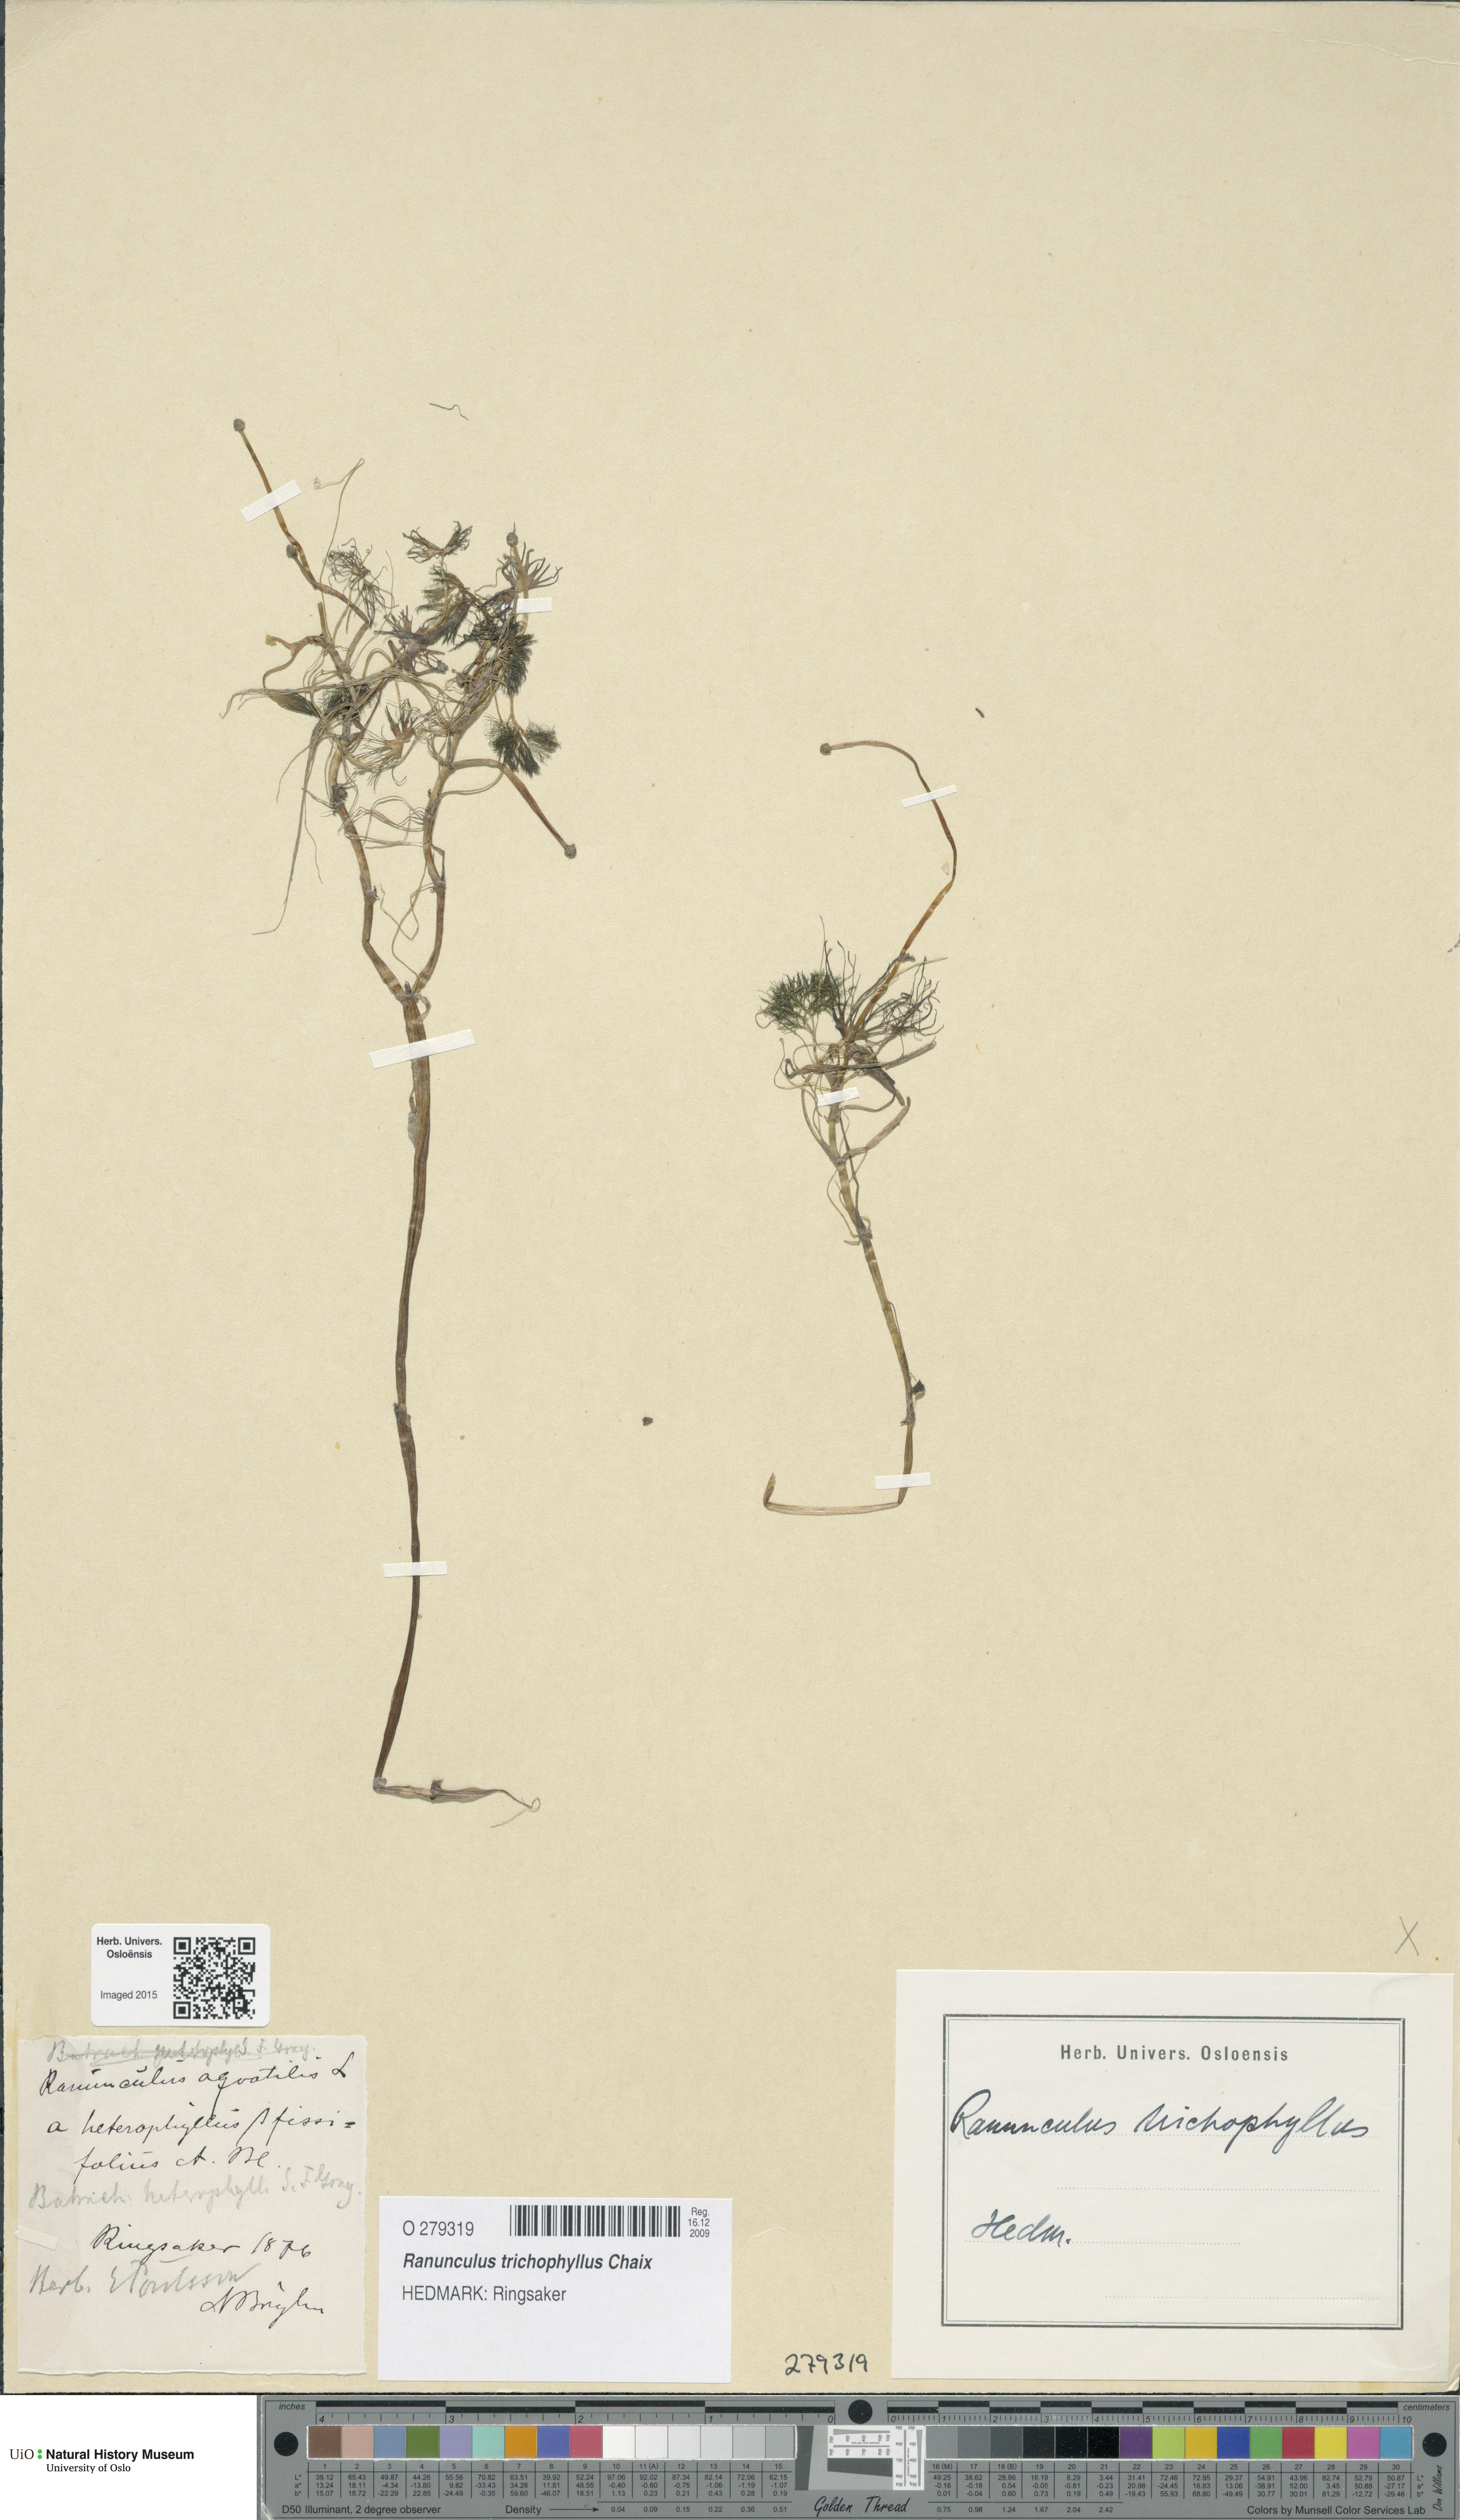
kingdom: Plantae
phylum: Tracheophyta
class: Magnoliopsida
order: Ranunculales
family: Ranunculaceae
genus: Ranunculus
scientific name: Ranunculus trichophyllus
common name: Thread-leaved water-crowfoot
